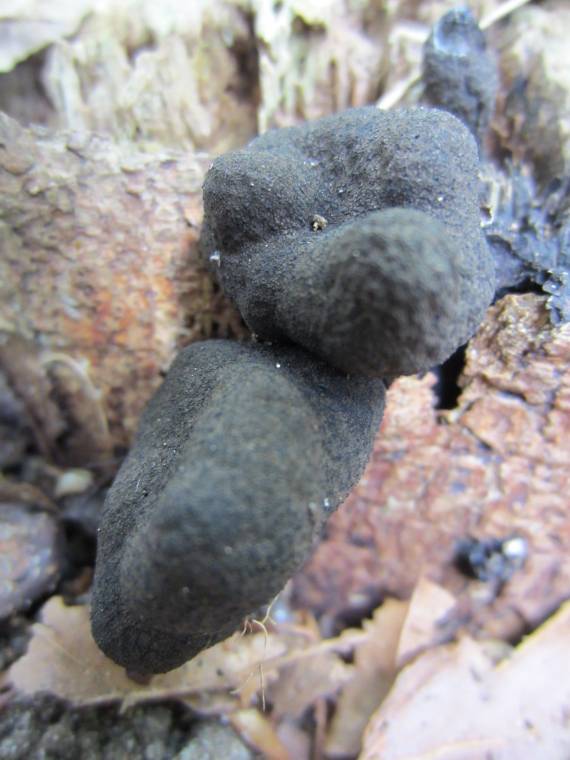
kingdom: Fungi
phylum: Ascomycota
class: Sordariomycetes
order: Xylariales
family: Xylariaceae
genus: Xylaria
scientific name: Xylaria polymorpha
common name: kølle-stødsvamp
